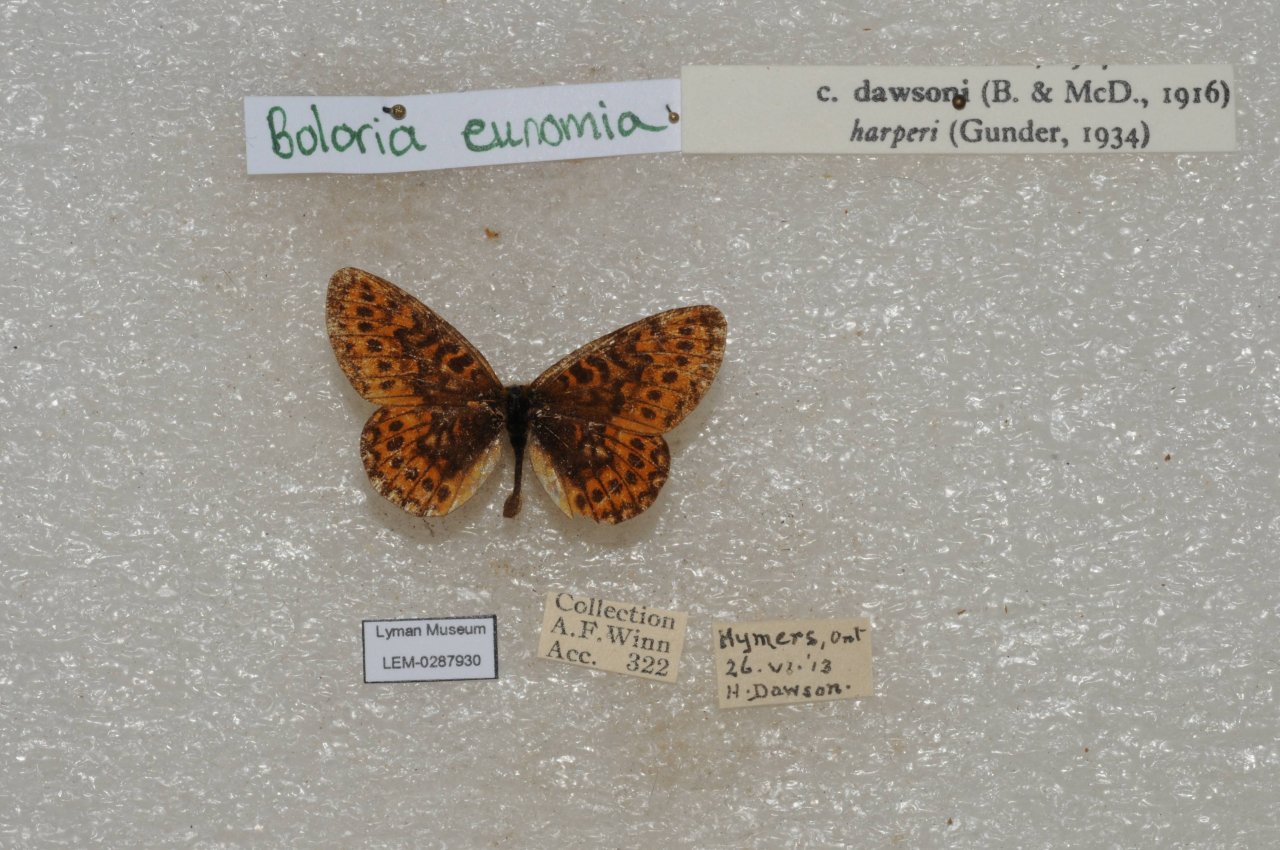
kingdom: Animalia
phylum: Arthropoda
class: Insecta
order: Lepidoptera
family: Nymphalidae
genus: Boloria
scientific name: Boloria eunomia
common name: Bog Fritillary
